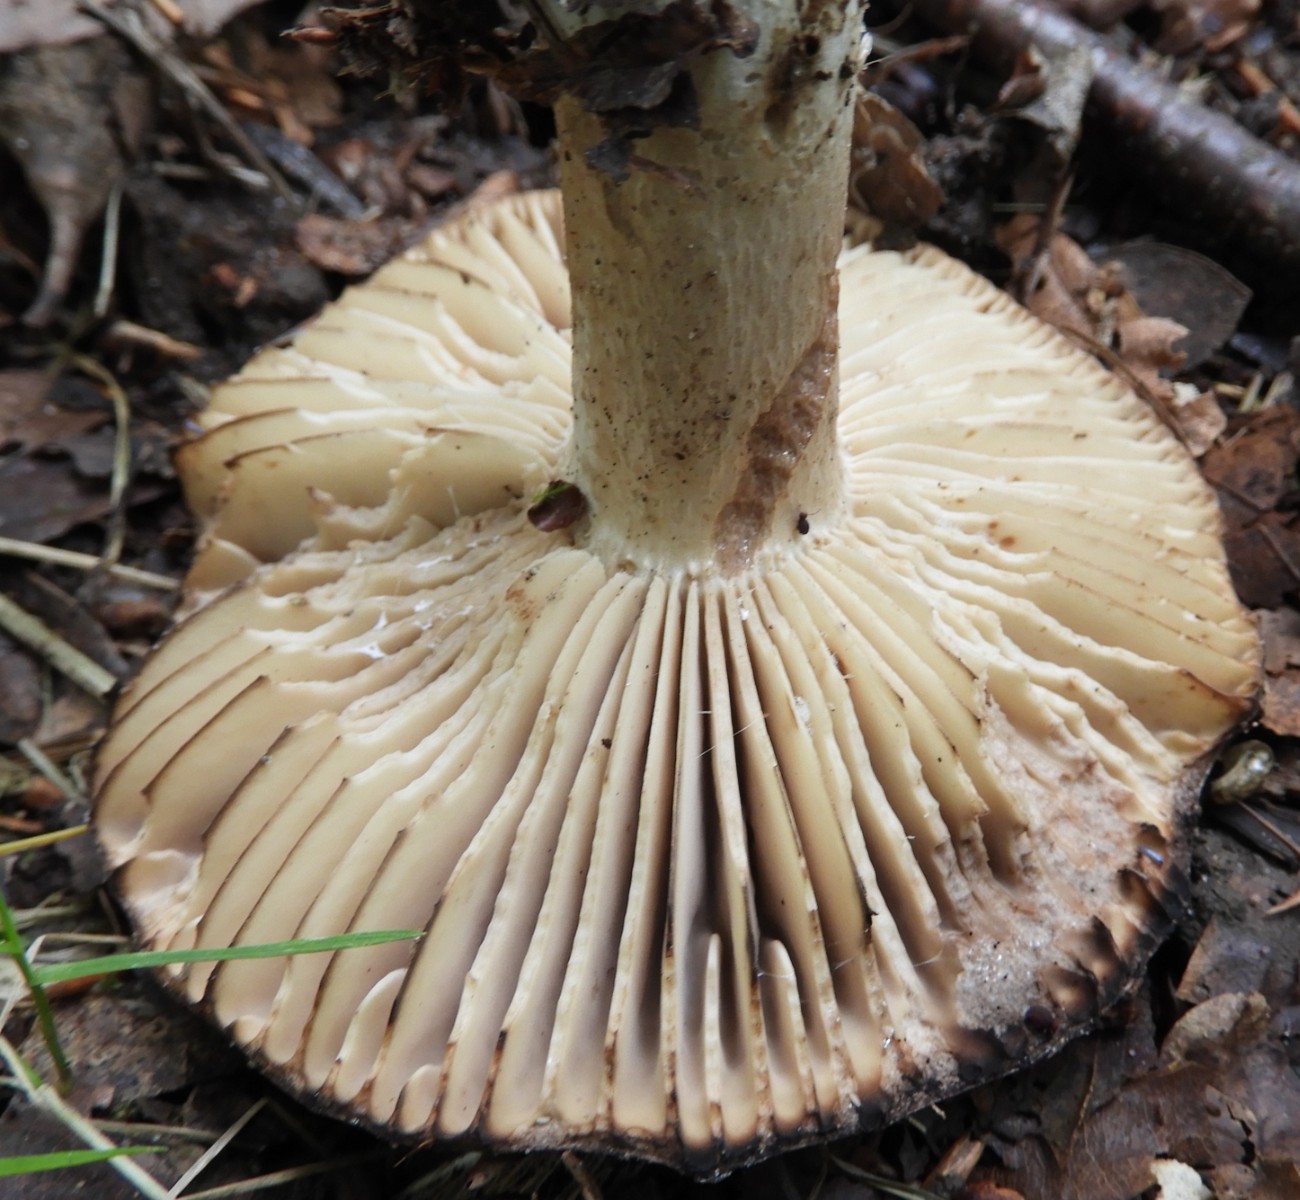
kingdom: Fungi
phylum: Basidiomycota
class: Agaricomycetes
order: Russulales
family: Russulaceae
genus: Russula
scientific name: Russula adusta
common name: sværtende skørhat
